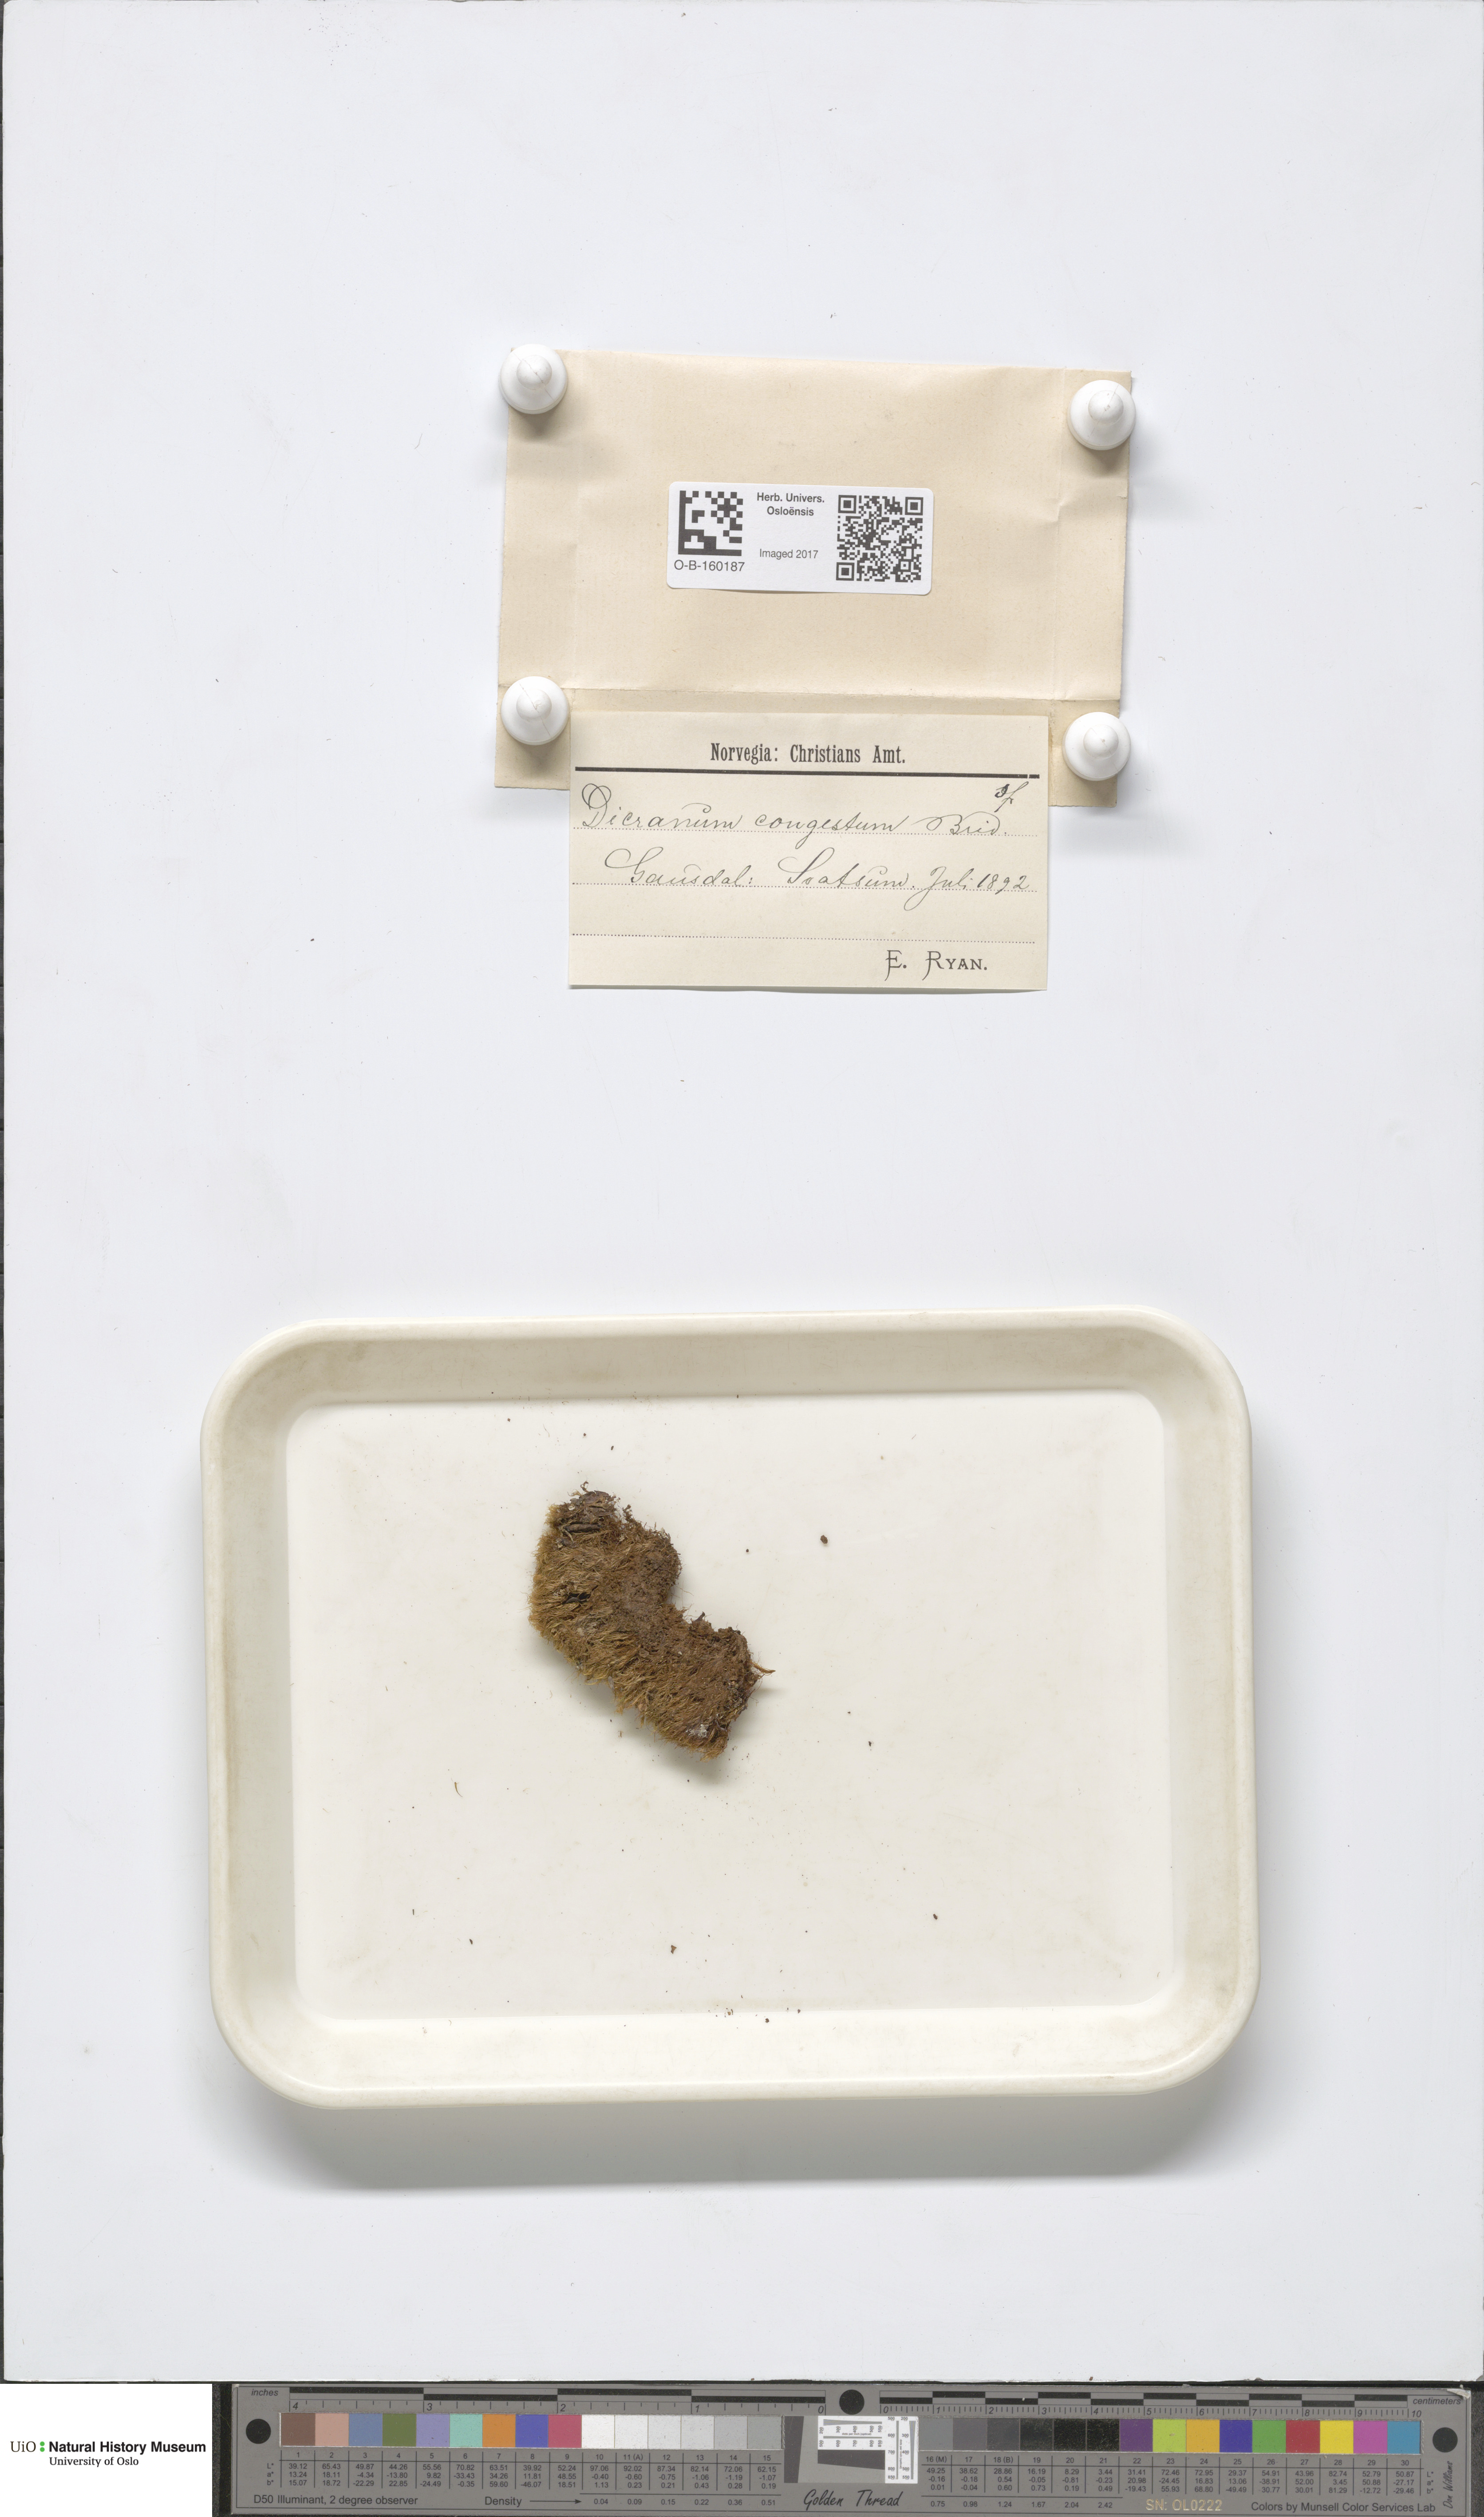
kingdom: Plantae
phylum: Bryophyta
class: Bryopsida
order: Dicranales
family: Dicranaceae
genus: Dicranum
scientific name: Dicranum flexicaule
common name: Bendy heron s-bill moss
